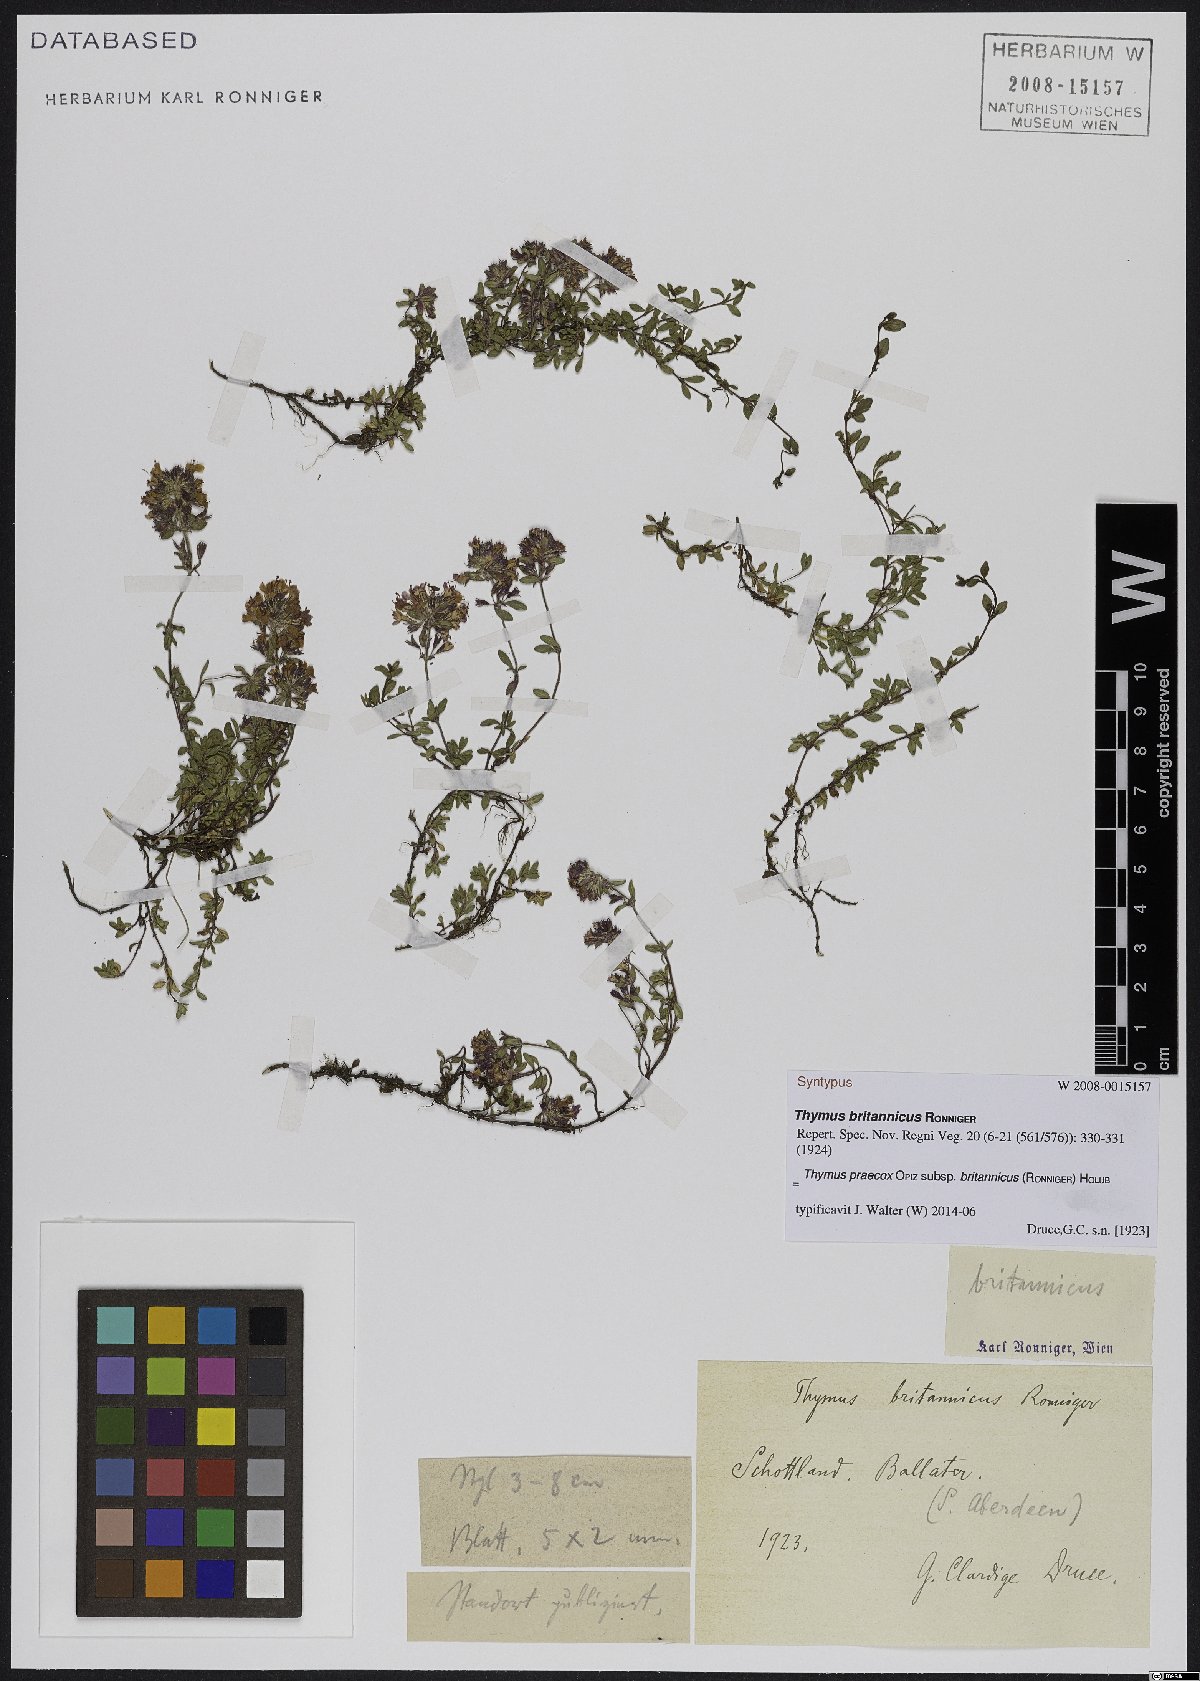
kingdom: Plantae
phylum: Tracheophyta
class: Magnoliopsida
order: Lamiales
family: Lamiaceae
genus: Thymus
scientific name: Thymus praecox
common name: Wild thyme
